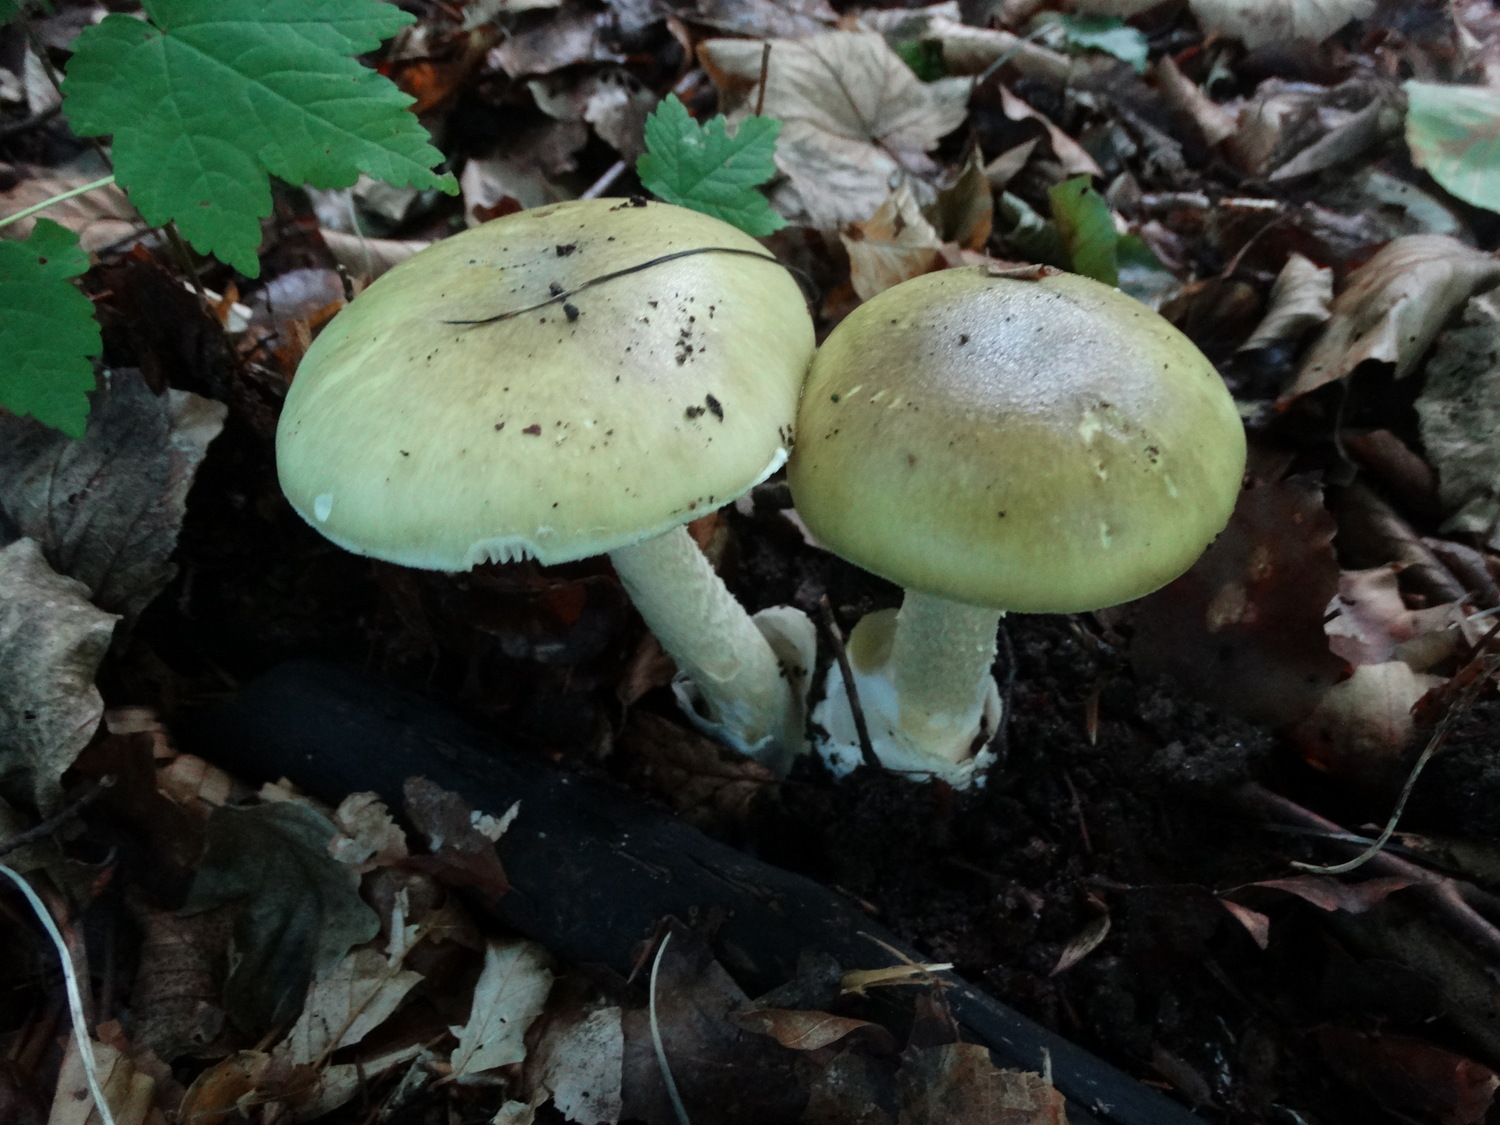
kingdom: Fungi
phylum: Basidiomycota
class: Agaricomycetes
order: Agaricales
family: Amanitaceae
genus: Amanita
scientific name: Amanita phalloides
